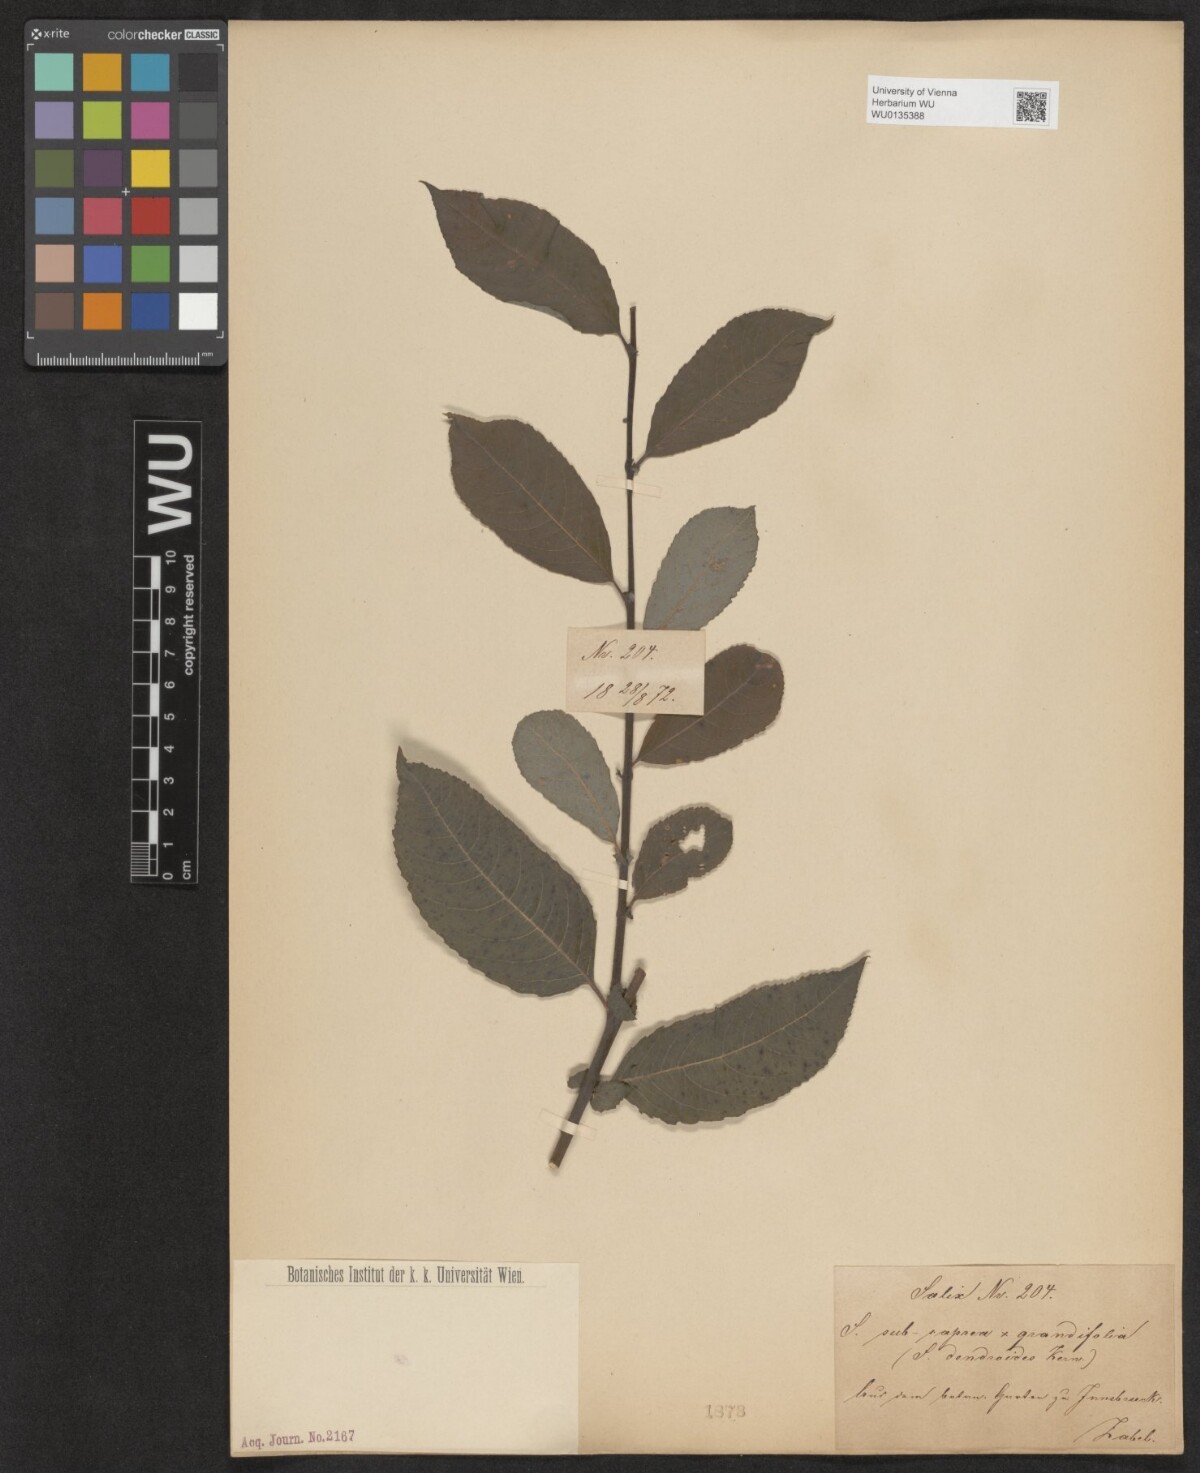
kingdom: Plantae
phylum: Tracheophyta
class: Magnoliopsida
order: Malpighiales
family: Salicaceae
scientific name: Salicaceae
